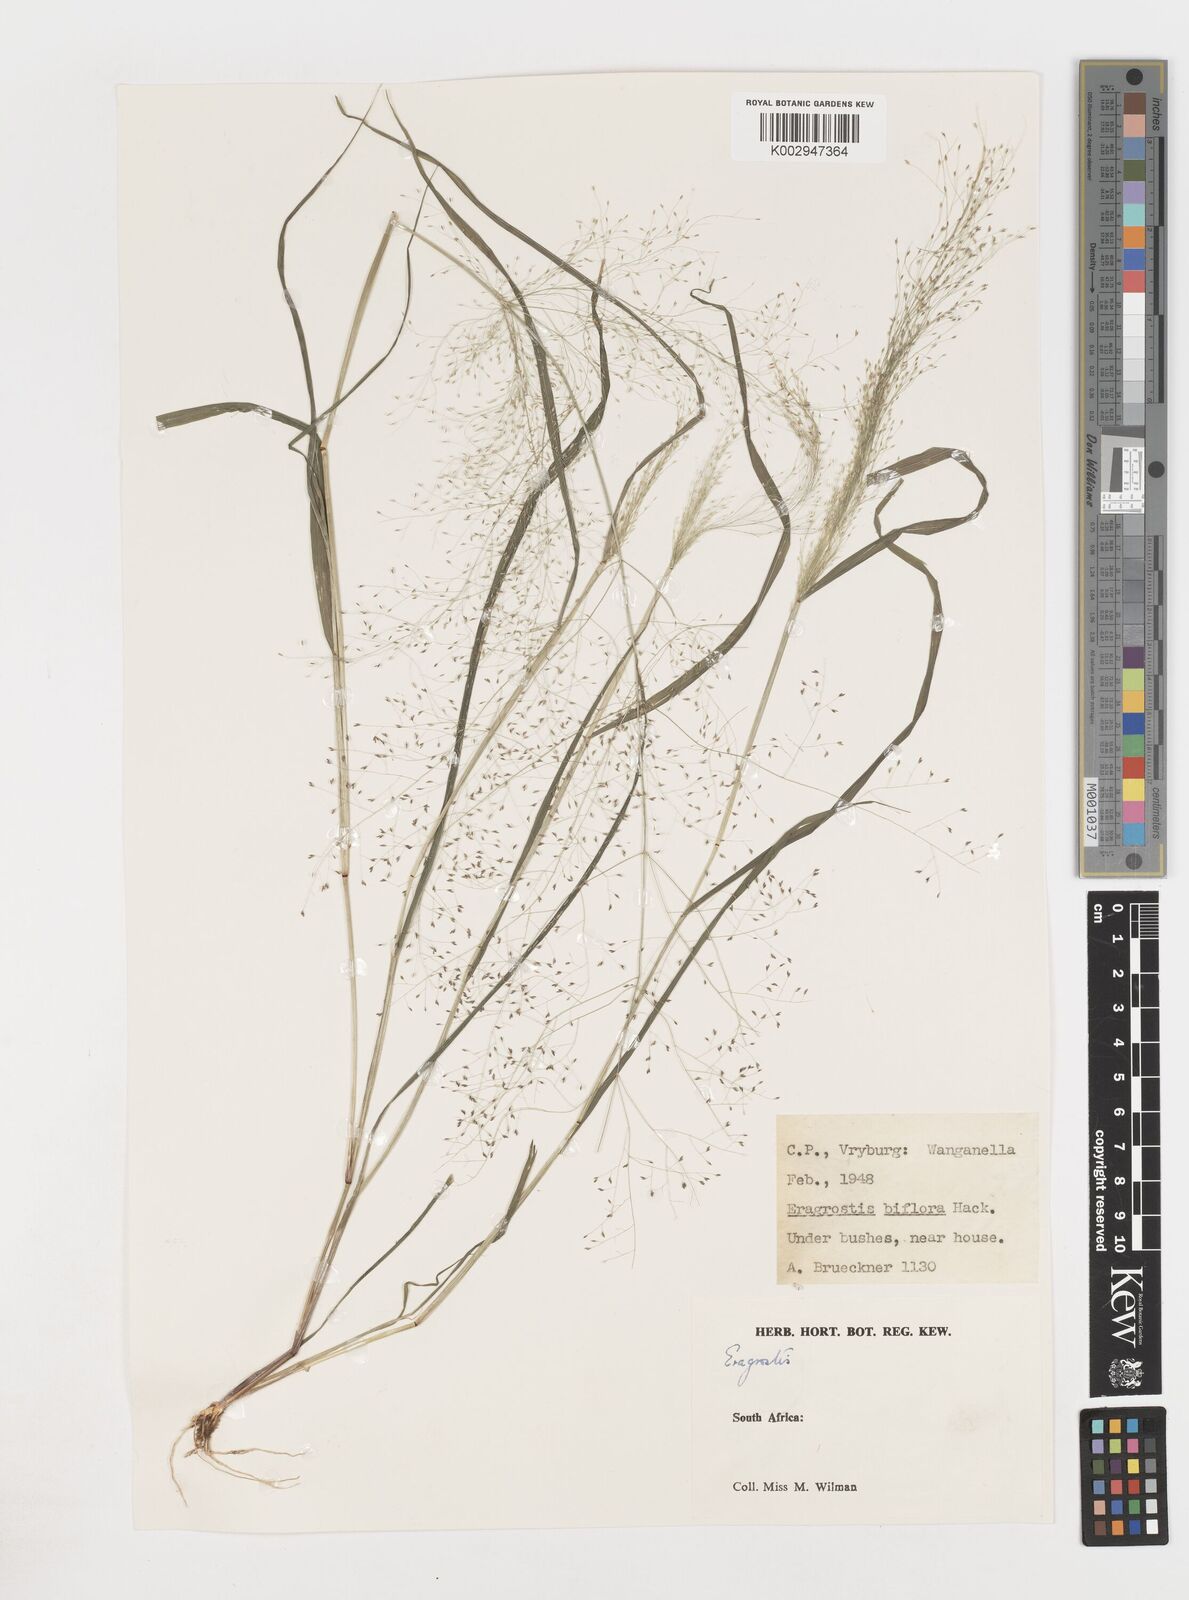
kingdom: Plantae
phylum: Tracheophyta
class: Liliopsida
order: Poales
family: Poaceae
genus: Eragrostis
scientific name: Eragrostis
